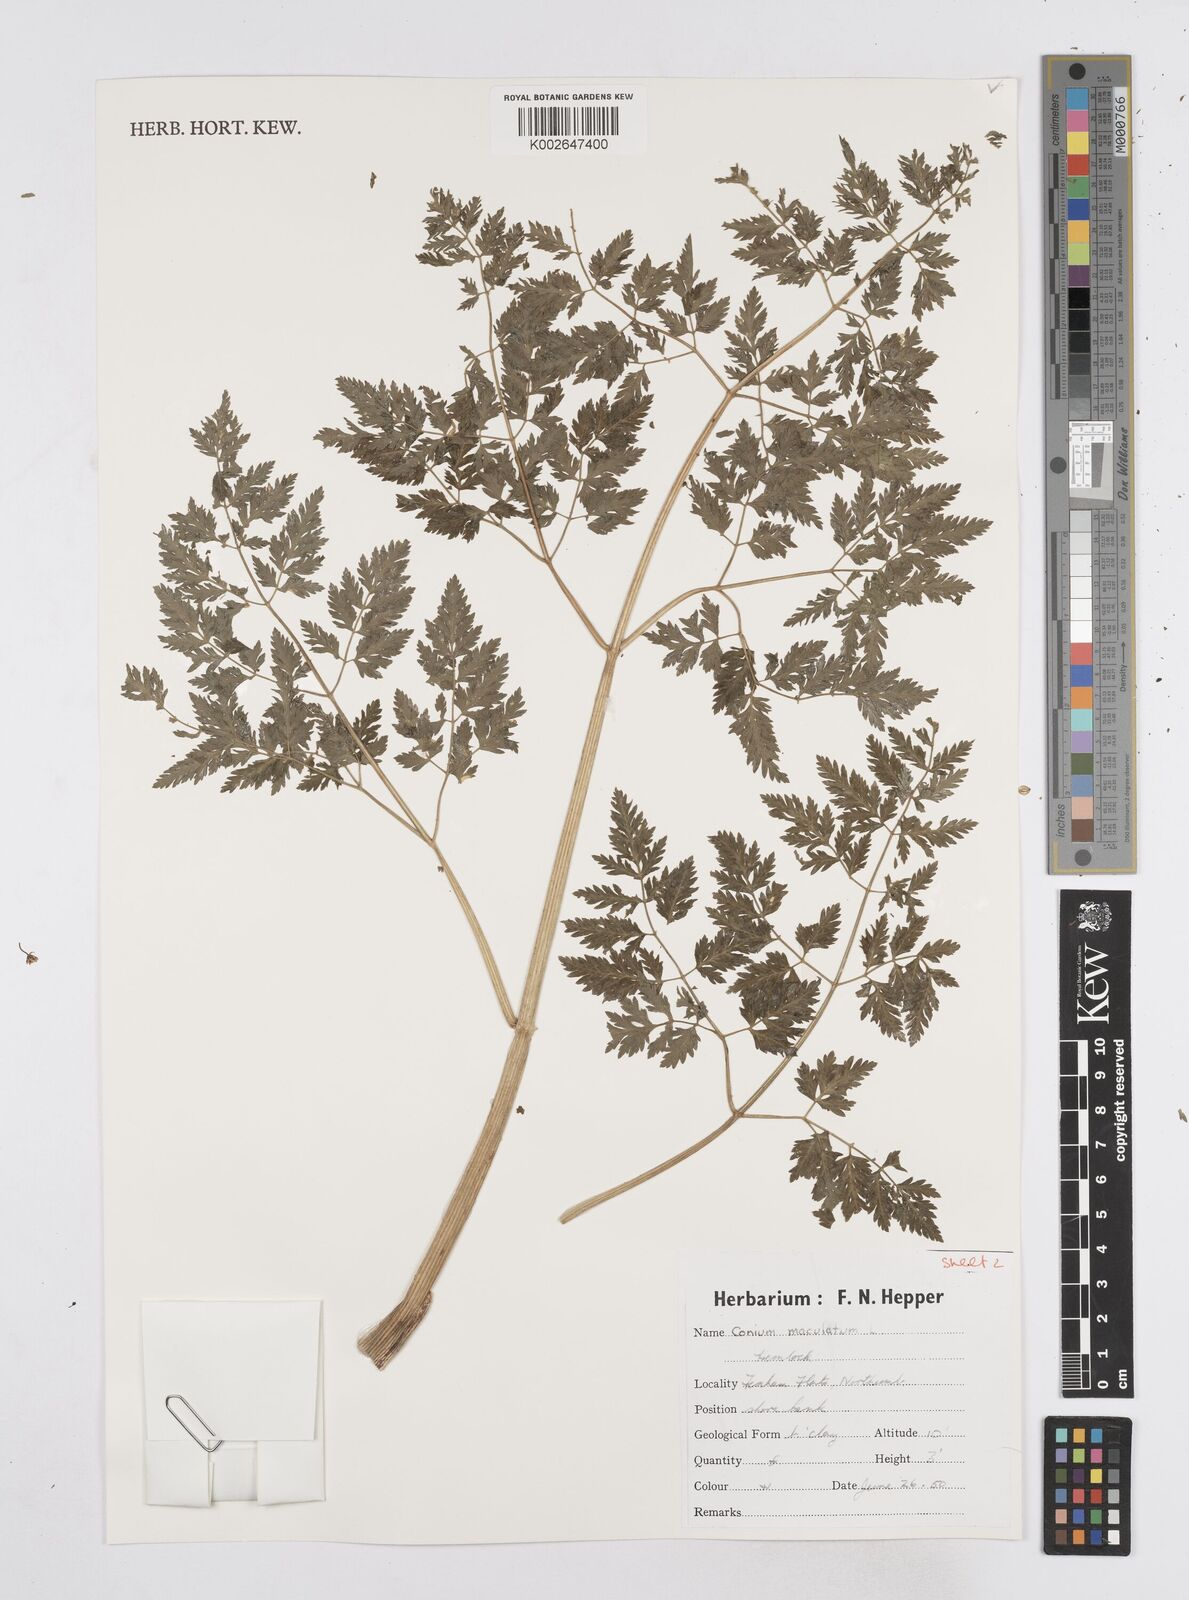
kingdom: Plantae
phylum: Tracheophyta
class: Magnoliopsida
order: Apiales
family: Apiaceae
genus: Conium
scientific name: Conium maculatum
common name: Hemlock
